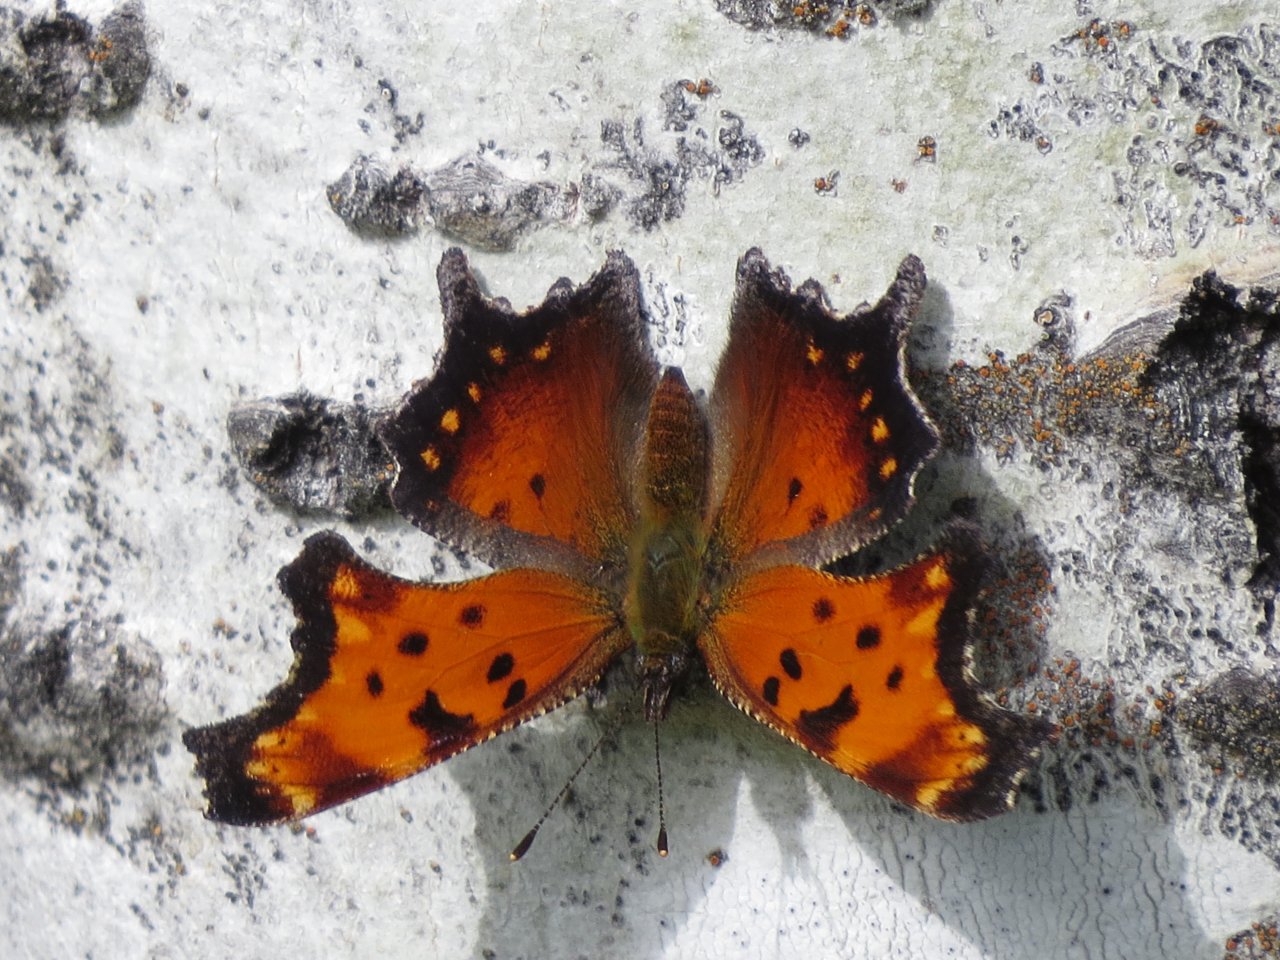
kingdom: Animalia
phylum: Arthropoda
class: Insecta
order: Lepidoptera
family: Nymphalidae
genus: Polygonia
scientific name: Polygonia progne
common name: Gray Comma
